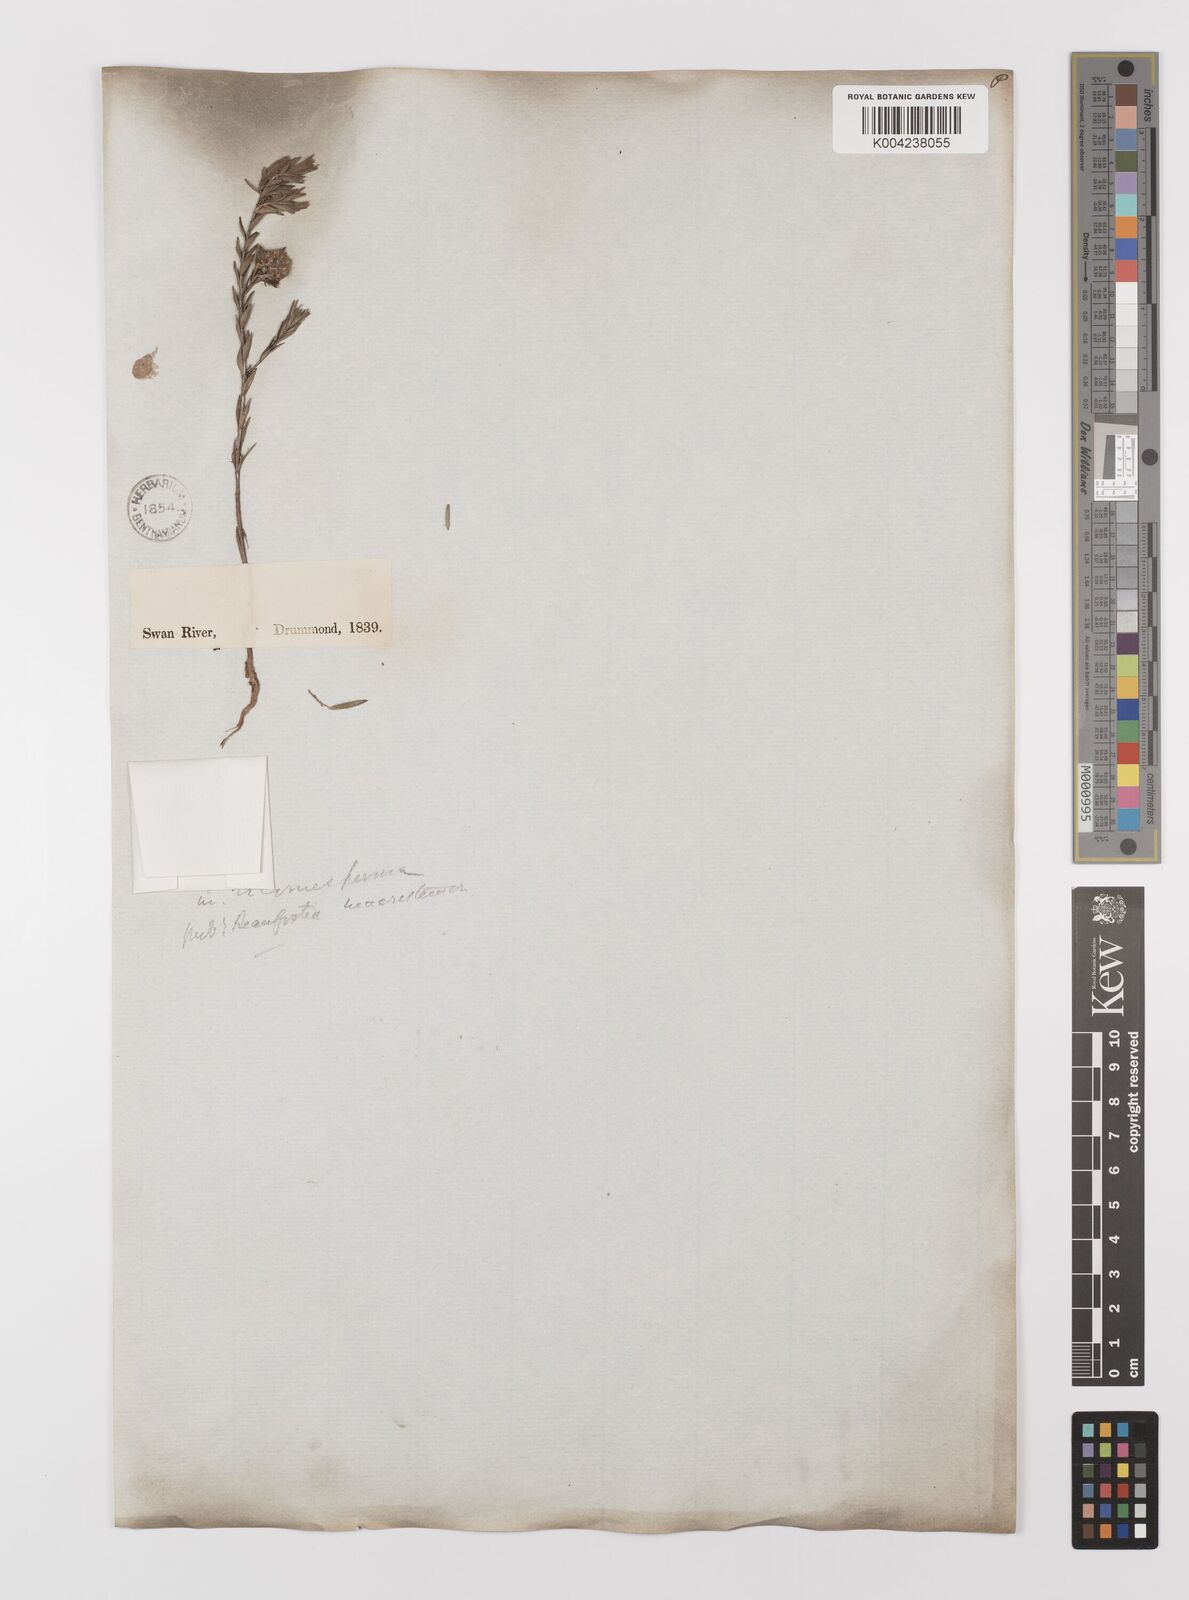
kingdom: Plantae
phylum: Tracheophyta
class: Magnoliopsida
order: Myrtales
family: Myrtaceae
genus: Melaleuca
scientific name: Melaleuca macrostemon
